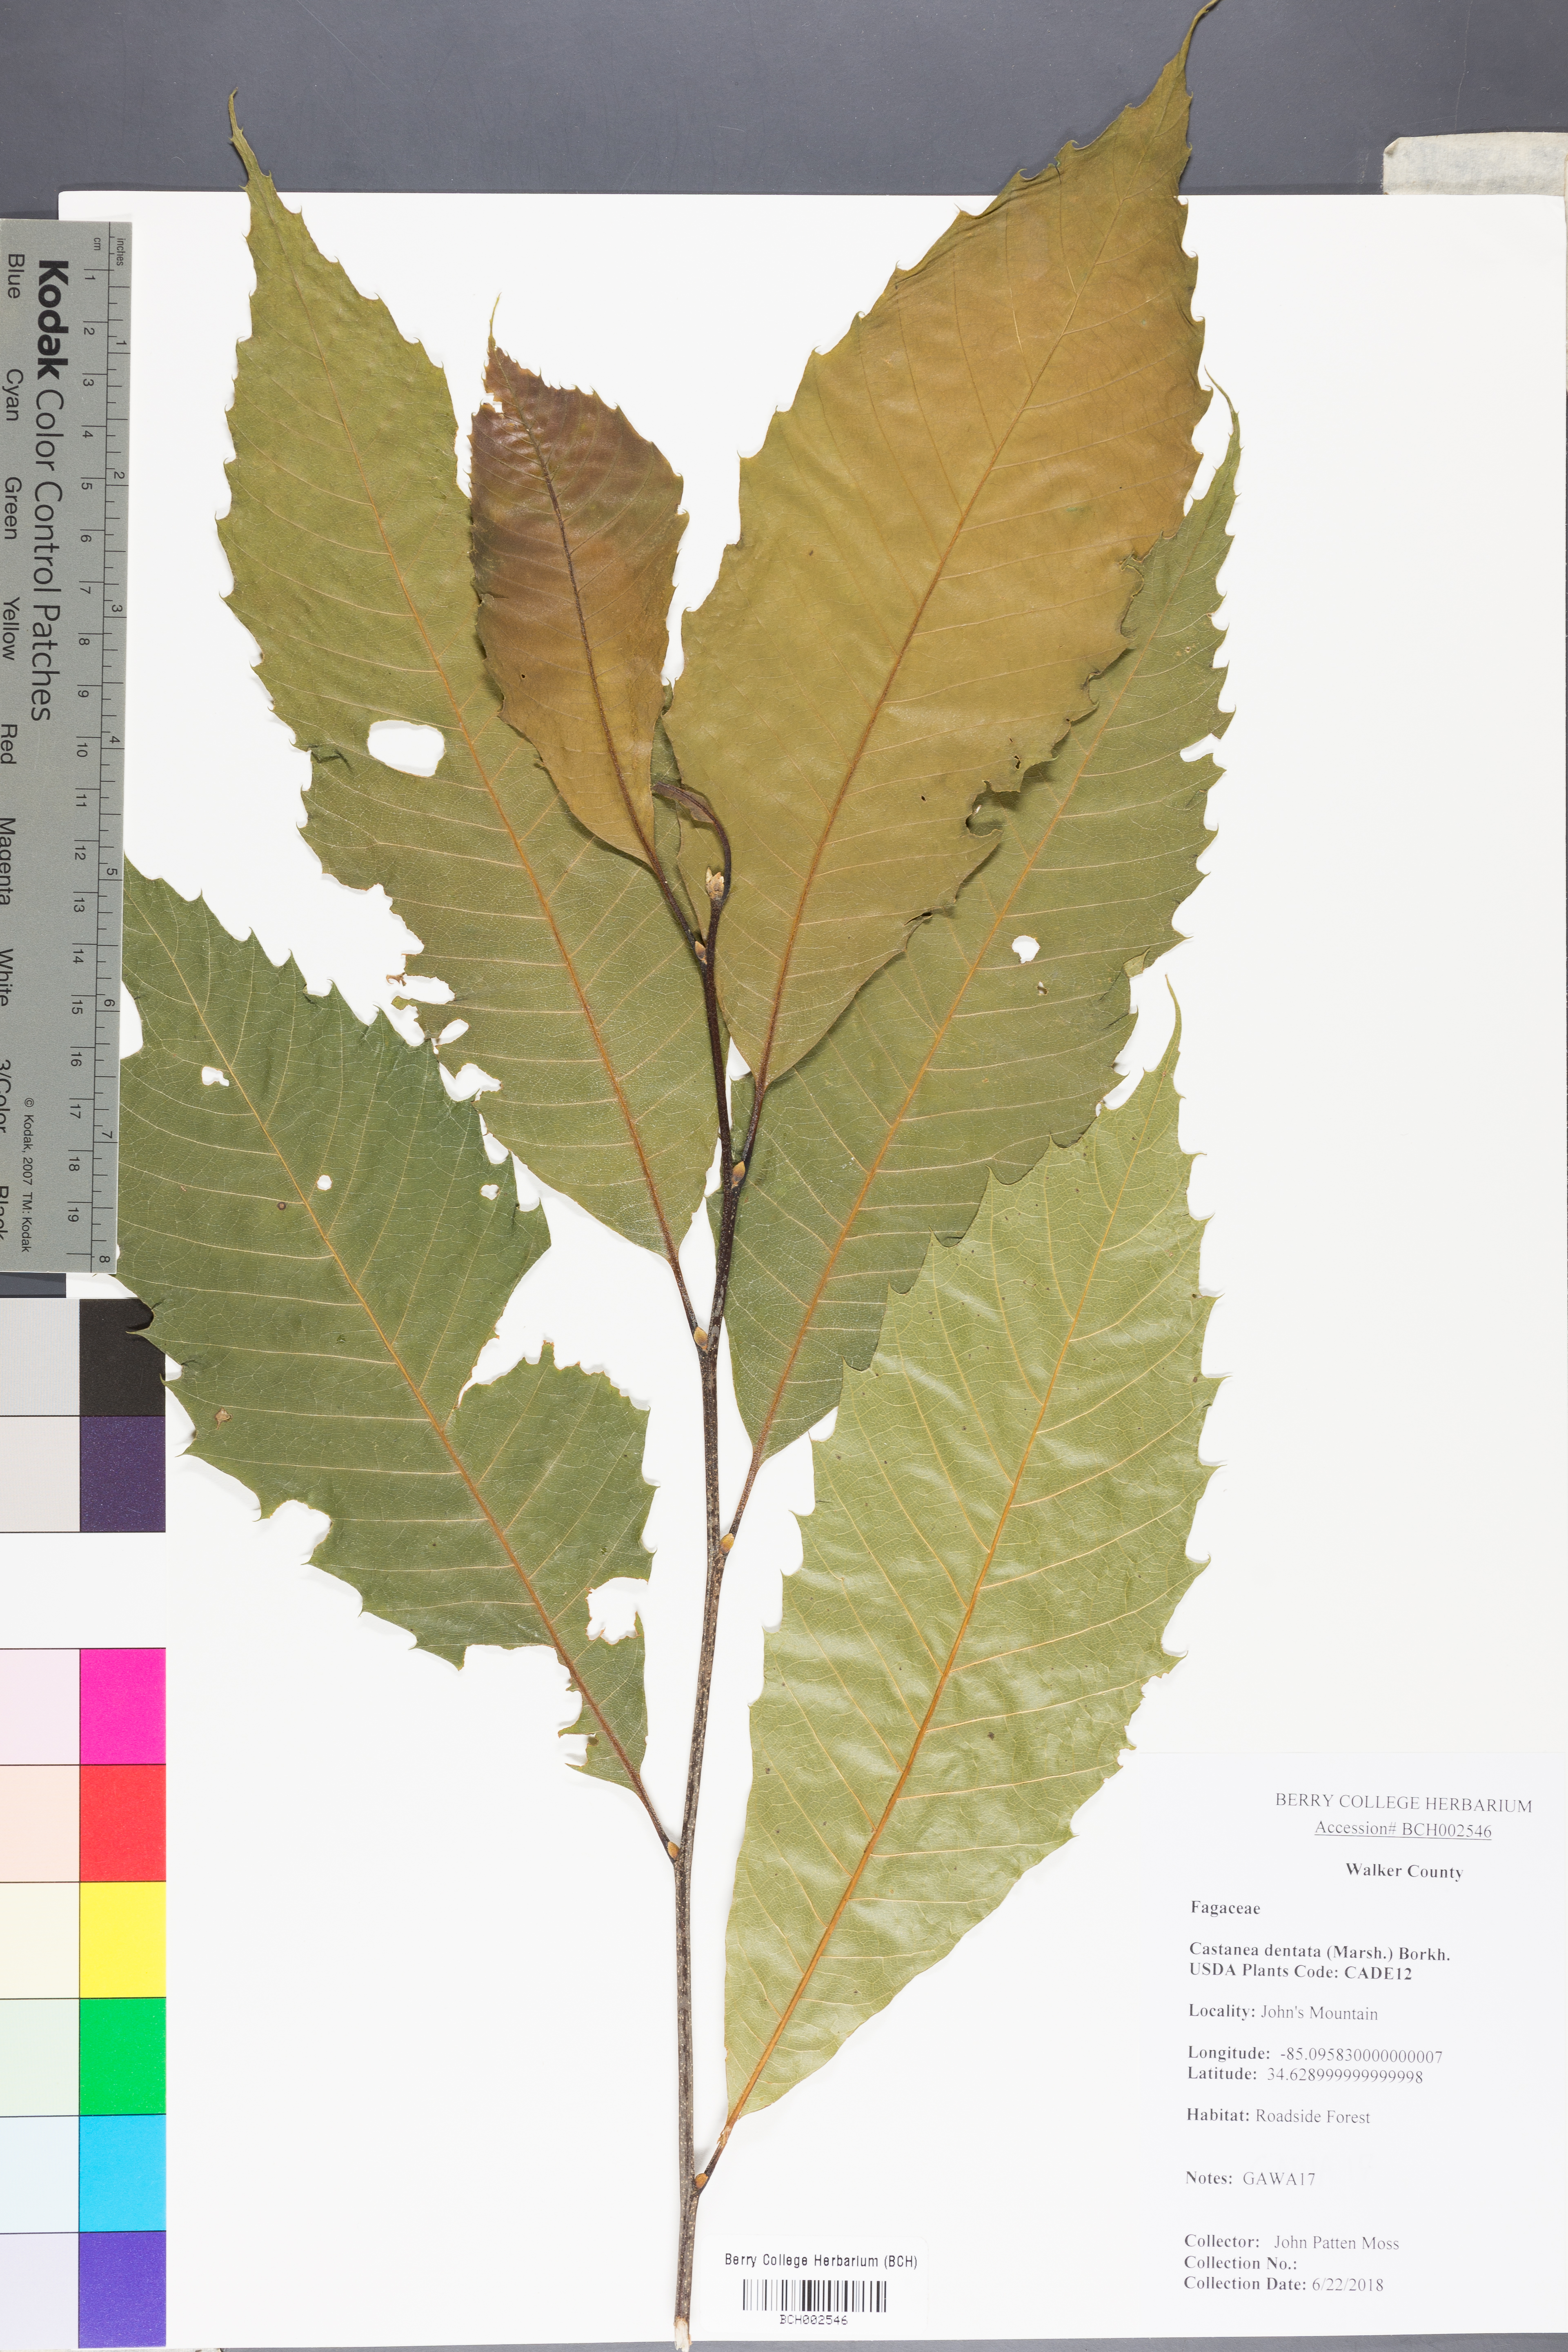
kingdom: Plantae
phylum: Tracheophyta
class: Magnoliopsida
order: Fagales
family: Fagaceae
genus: Castanea
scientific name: Castanea dentata
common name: American chestnut
